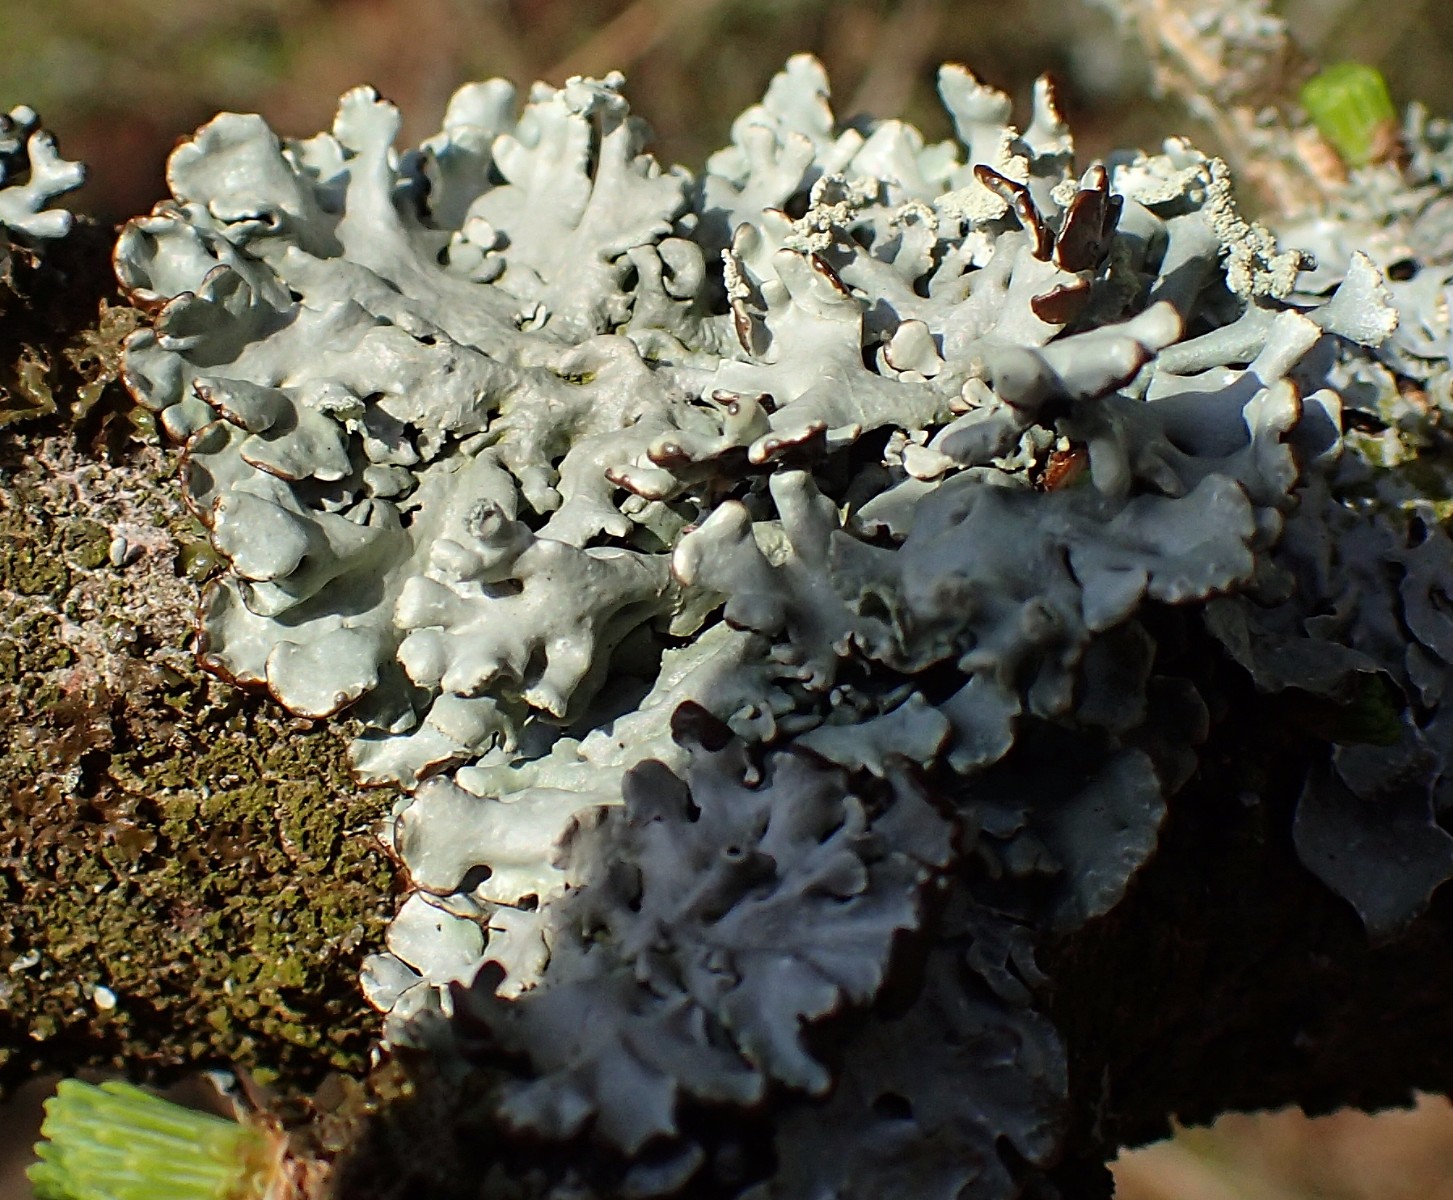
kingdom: Fungi
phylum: Ascomycota
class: Lecanoromycetes
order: Lecanorales
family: Parmeliaceae
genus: Hypogymnia
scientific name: Hypogymnia physodes
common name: almindelig kvistlav
